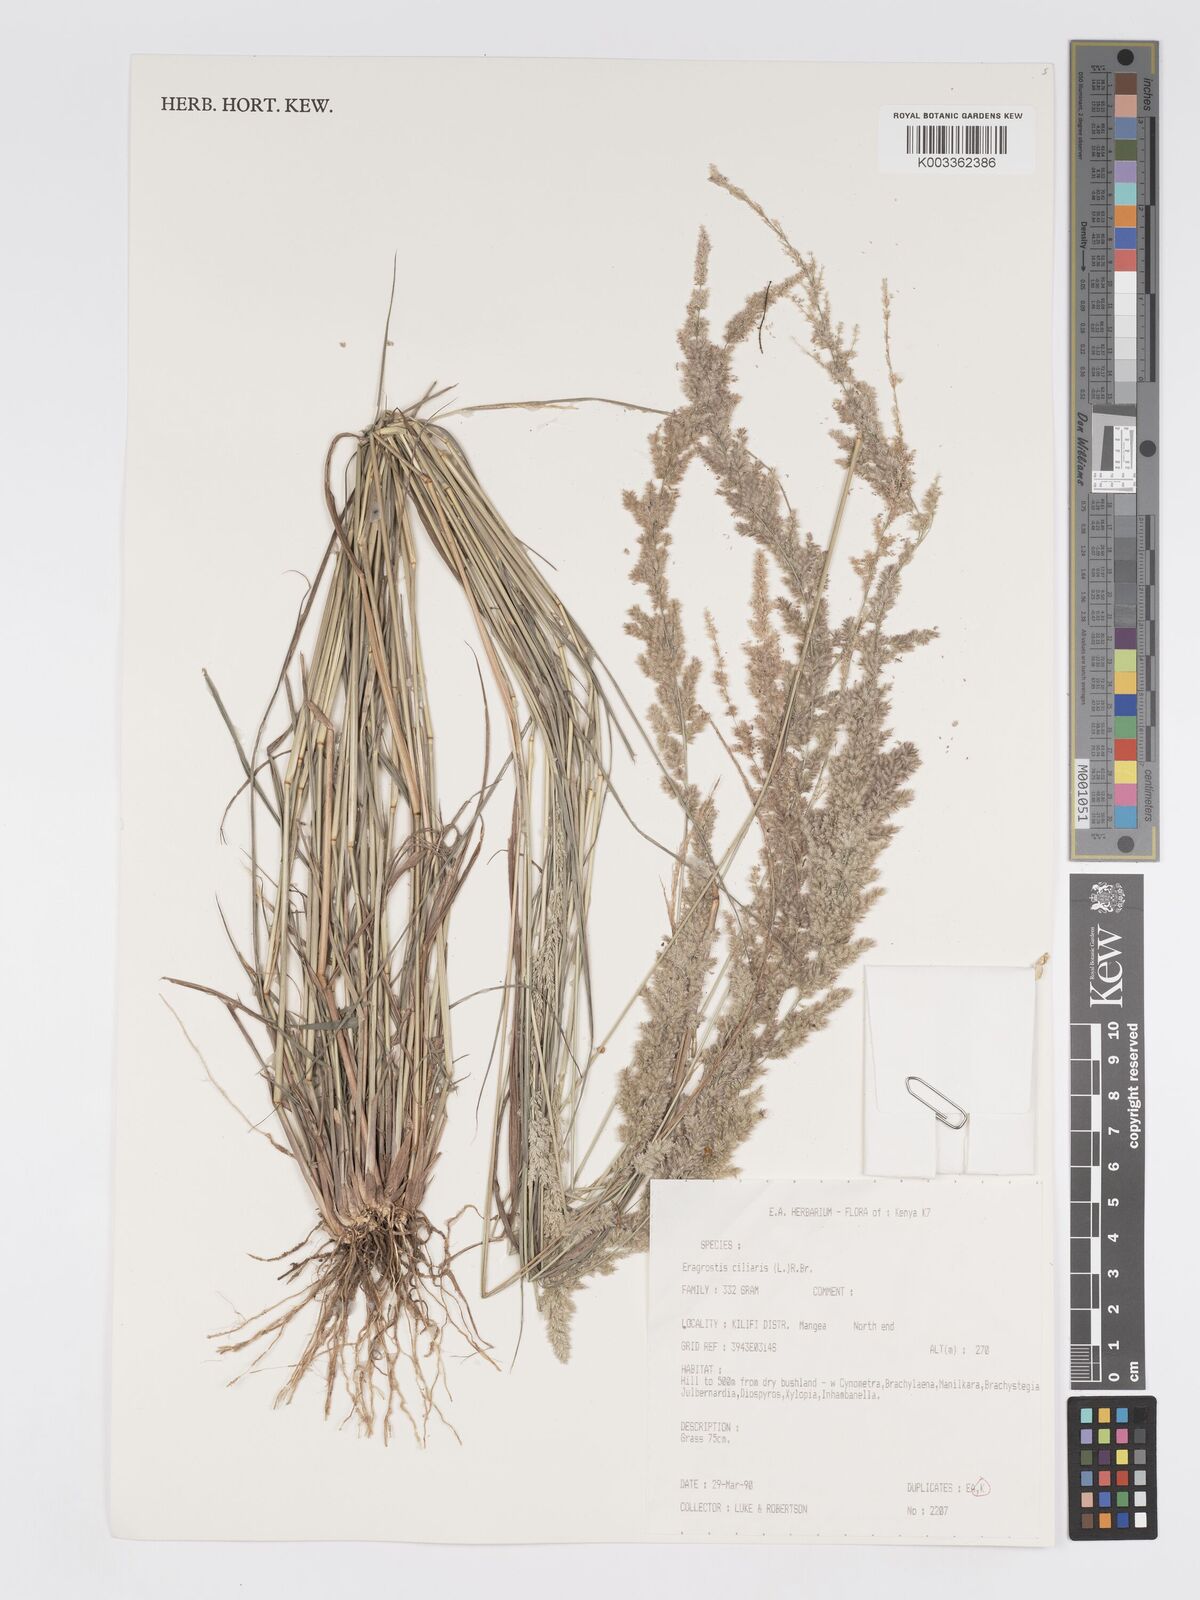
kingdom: Plantae
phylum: Tracheophyta
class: Liliopsida
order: Poales
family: Poaceae
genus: Eragrostis
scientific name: Eragrostis ciliaris
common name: Gophertail lovegrass
